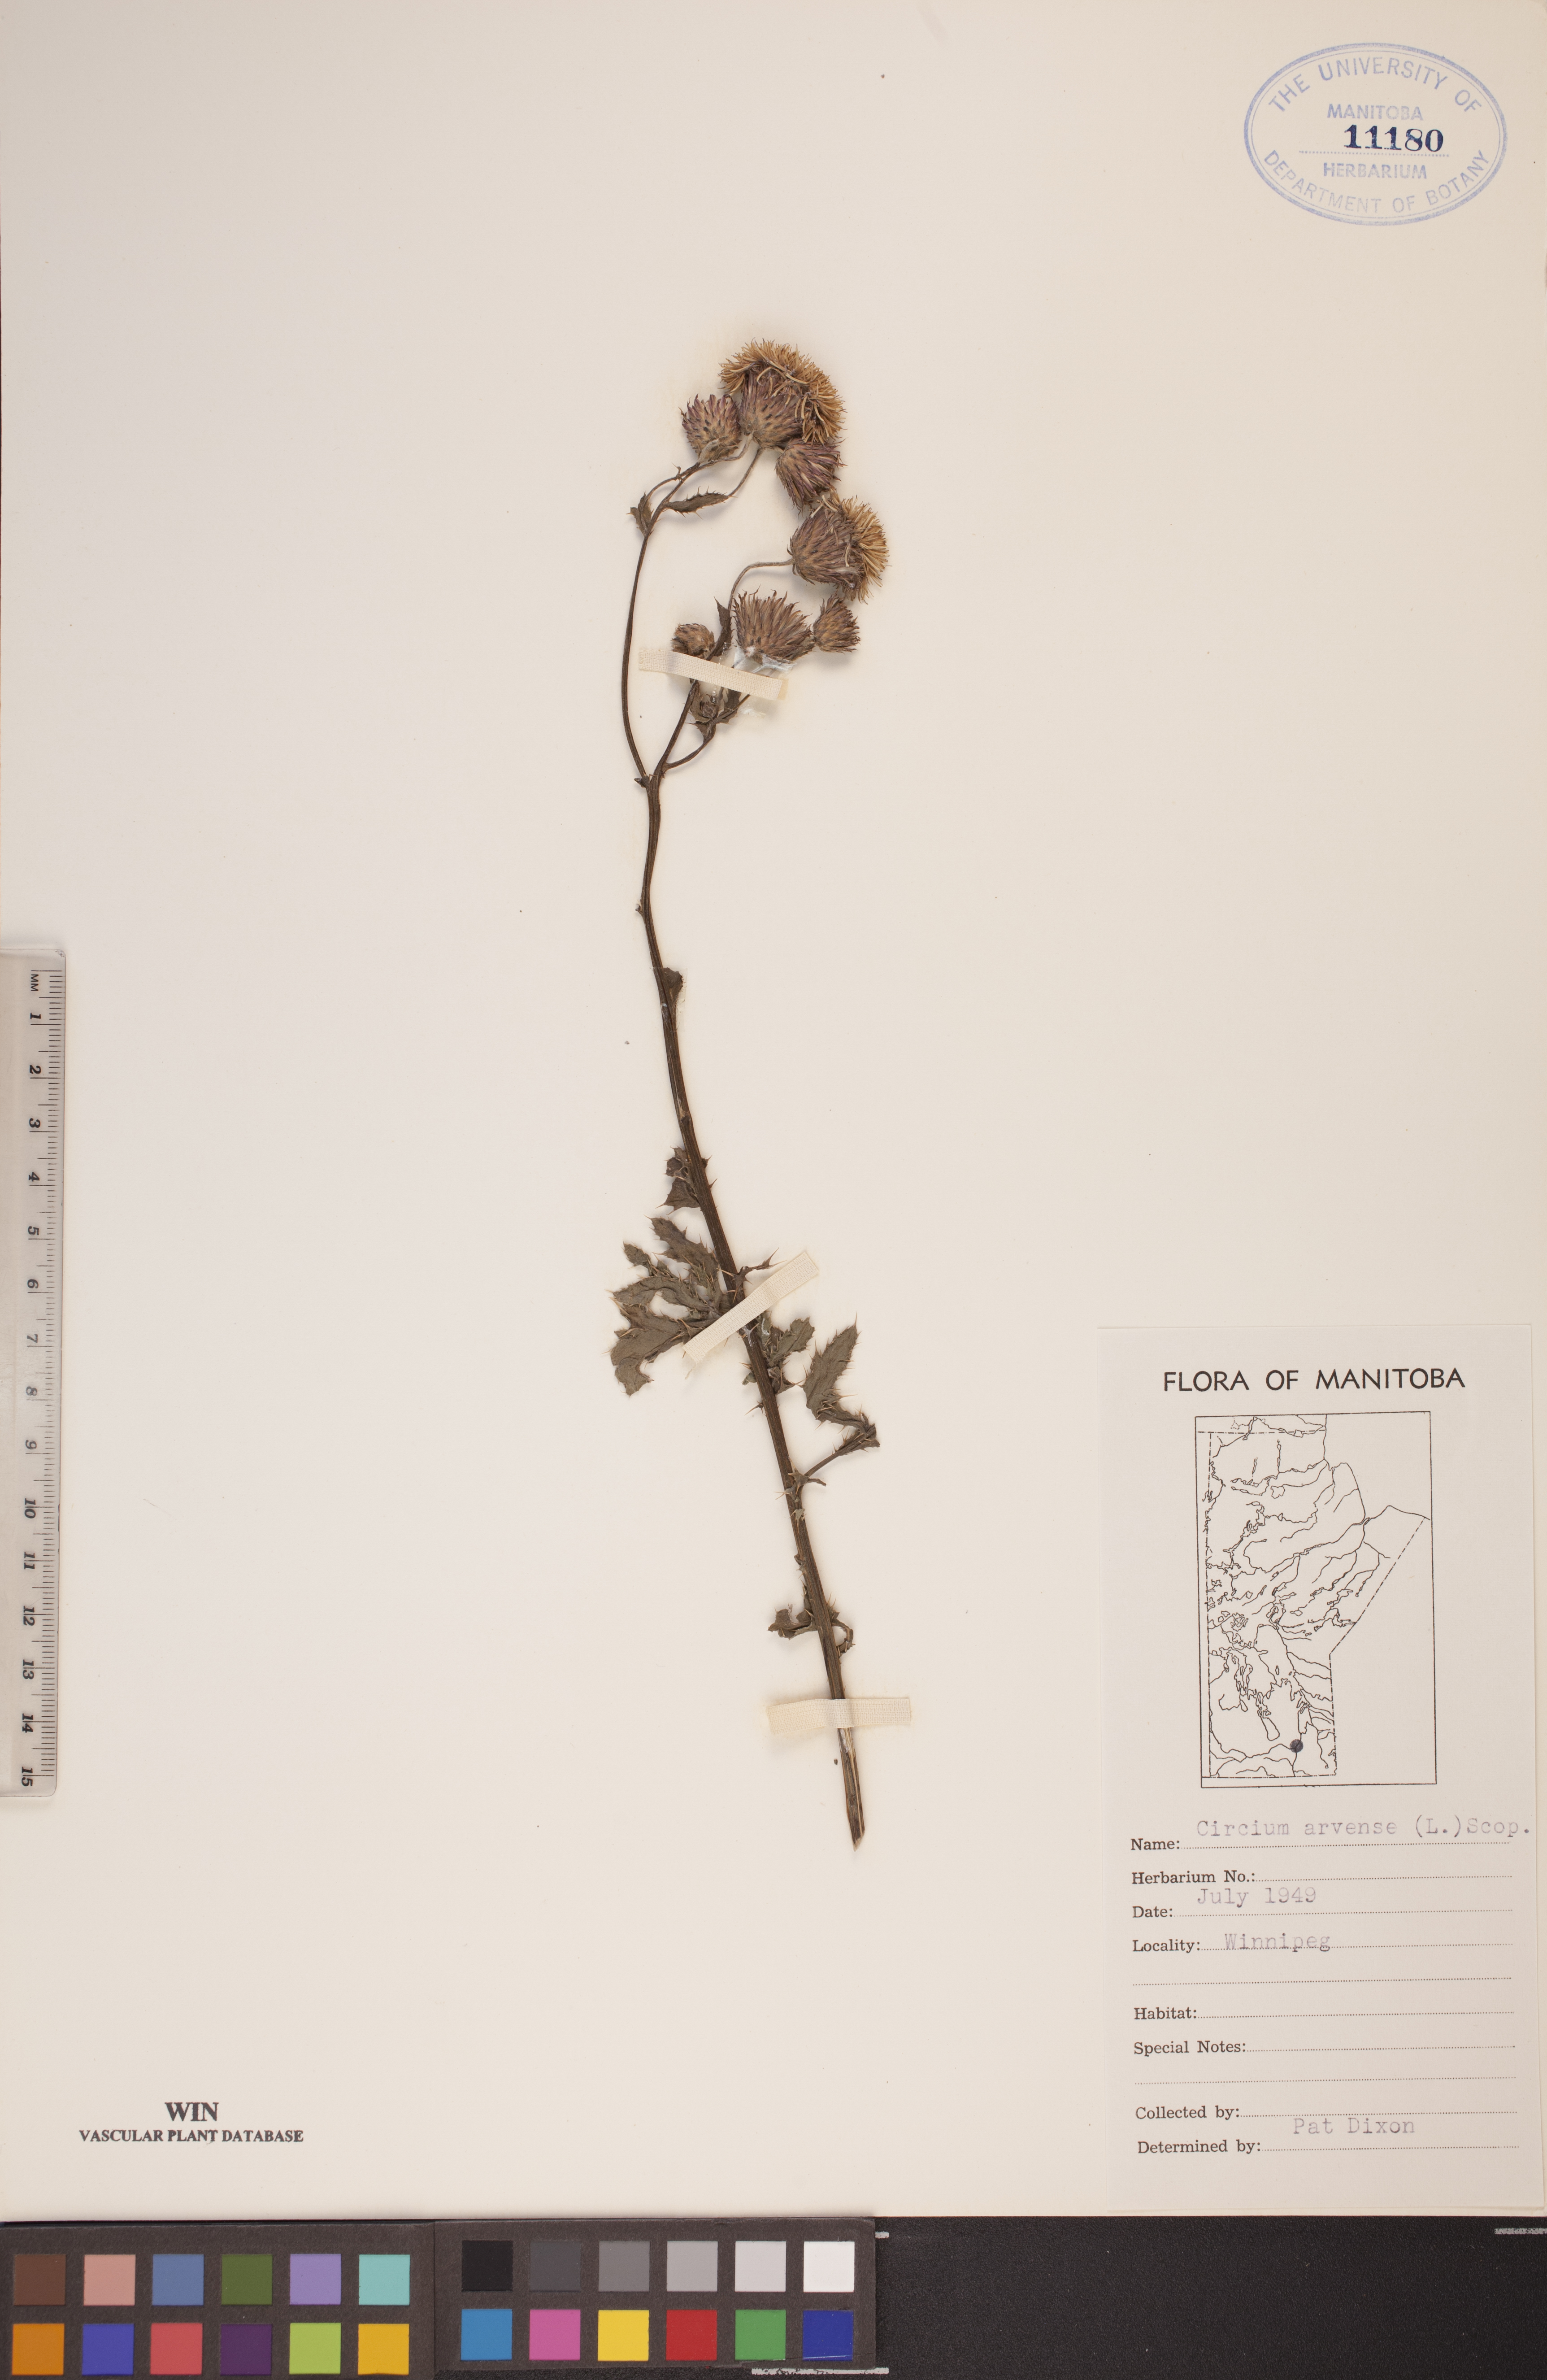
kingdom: Plantae
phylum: Tracheophyta
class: Magnoliopsida
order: Asterales
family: Asteraceae
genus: Cirsium
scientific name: Cirsium arvense
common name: Creeping thistle
